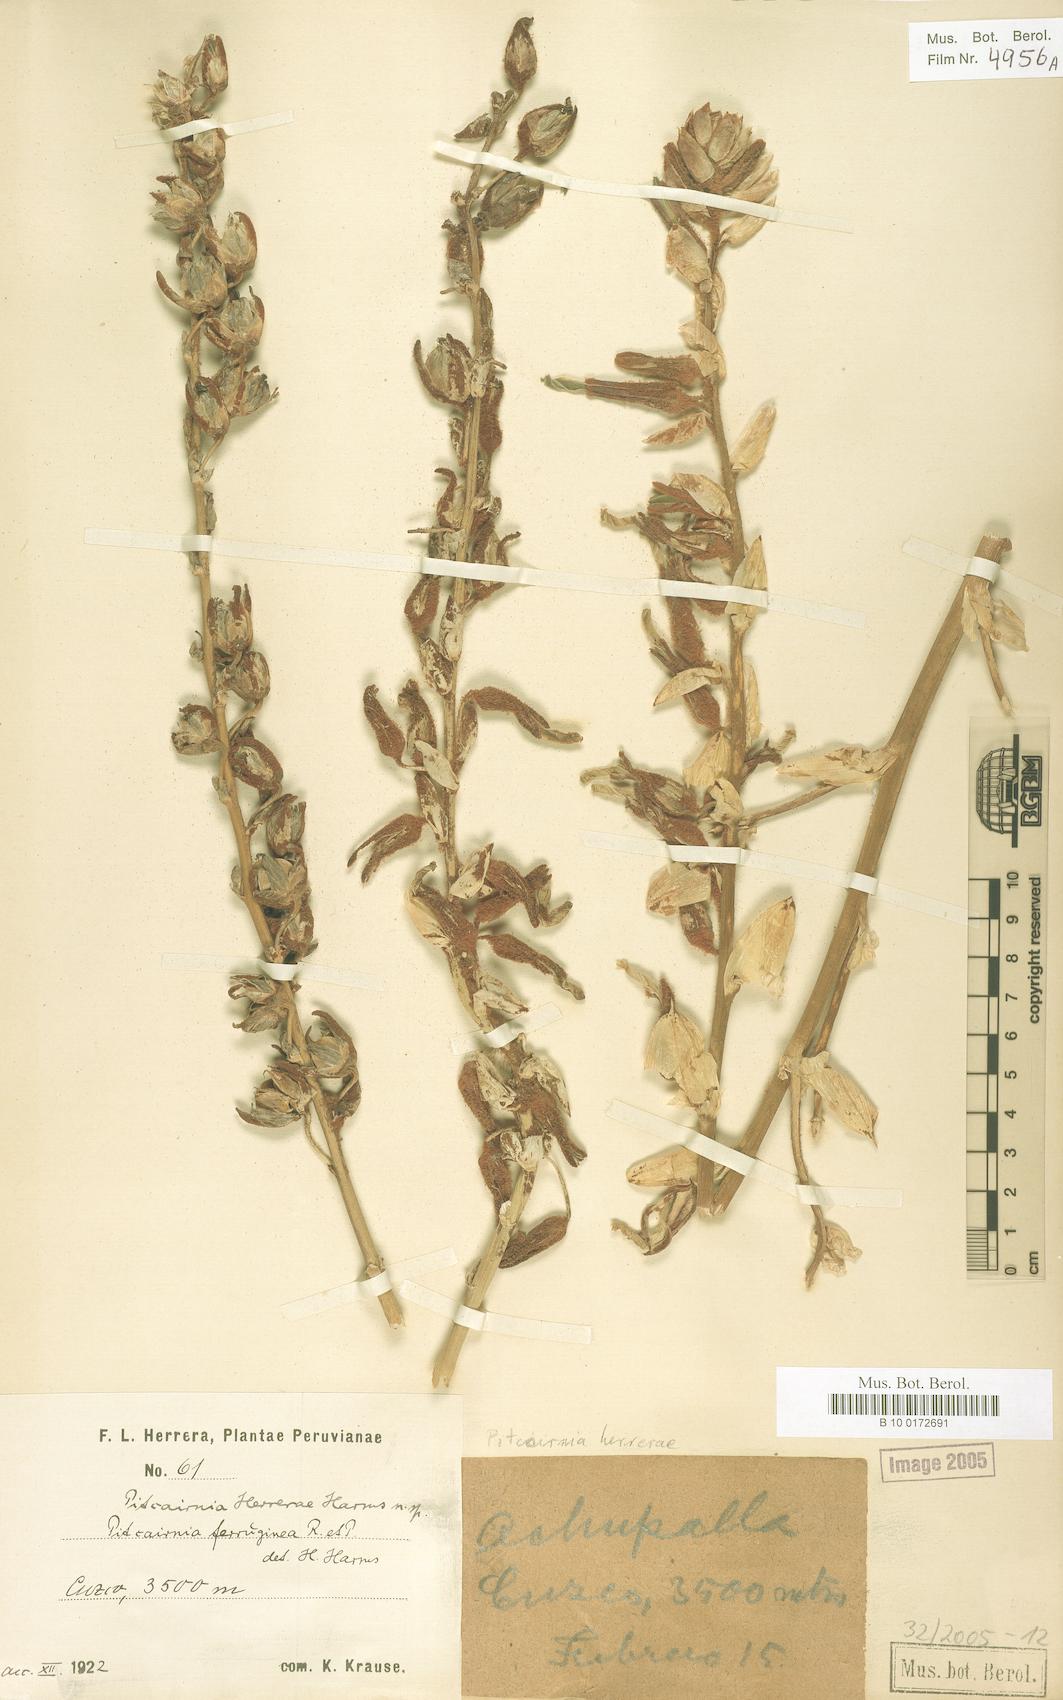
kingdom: Plantae
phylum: Tracheophyta
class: Liliopsida
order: Poales
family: Bromeliaceae
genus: Puya
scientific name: Puya ferruginea
